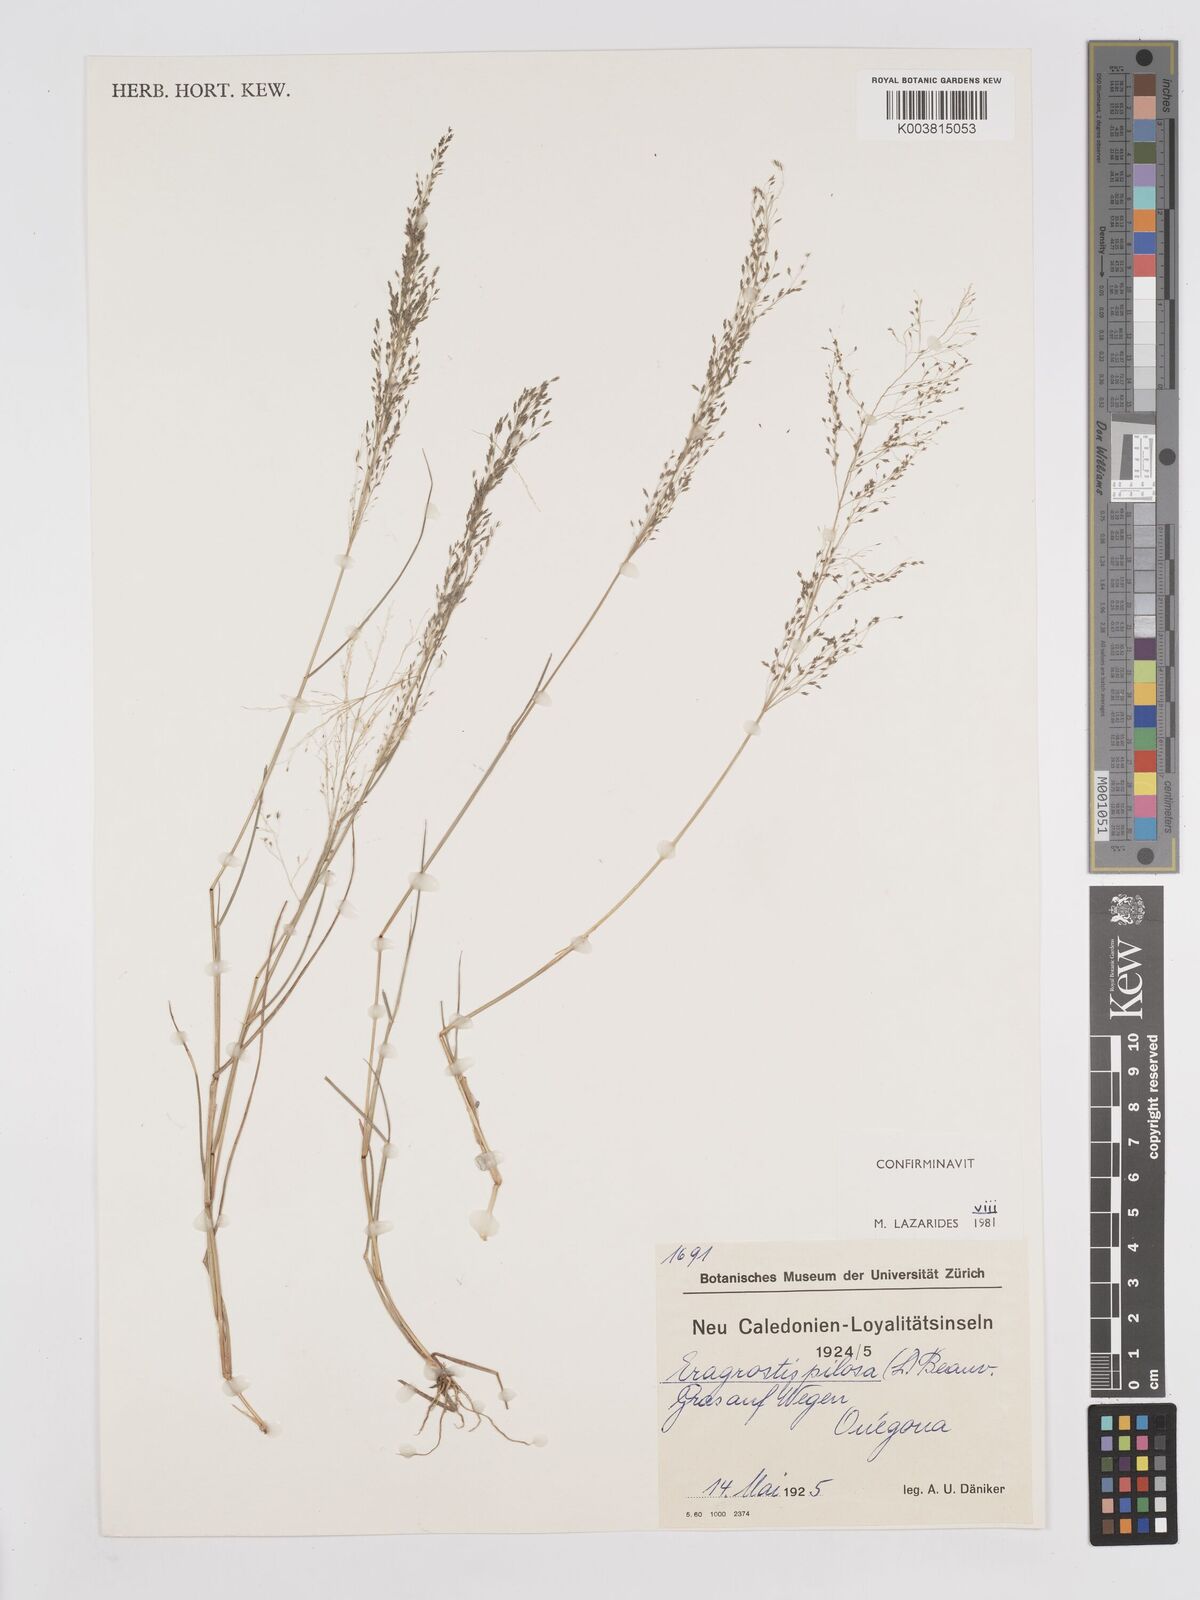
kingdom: Plantae
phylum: Tracheophyta
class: Liliopsida
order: Poales
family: Poaceae
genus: Eragrostis
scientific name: Eragrostis pilosa
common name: Indian lovegrass
